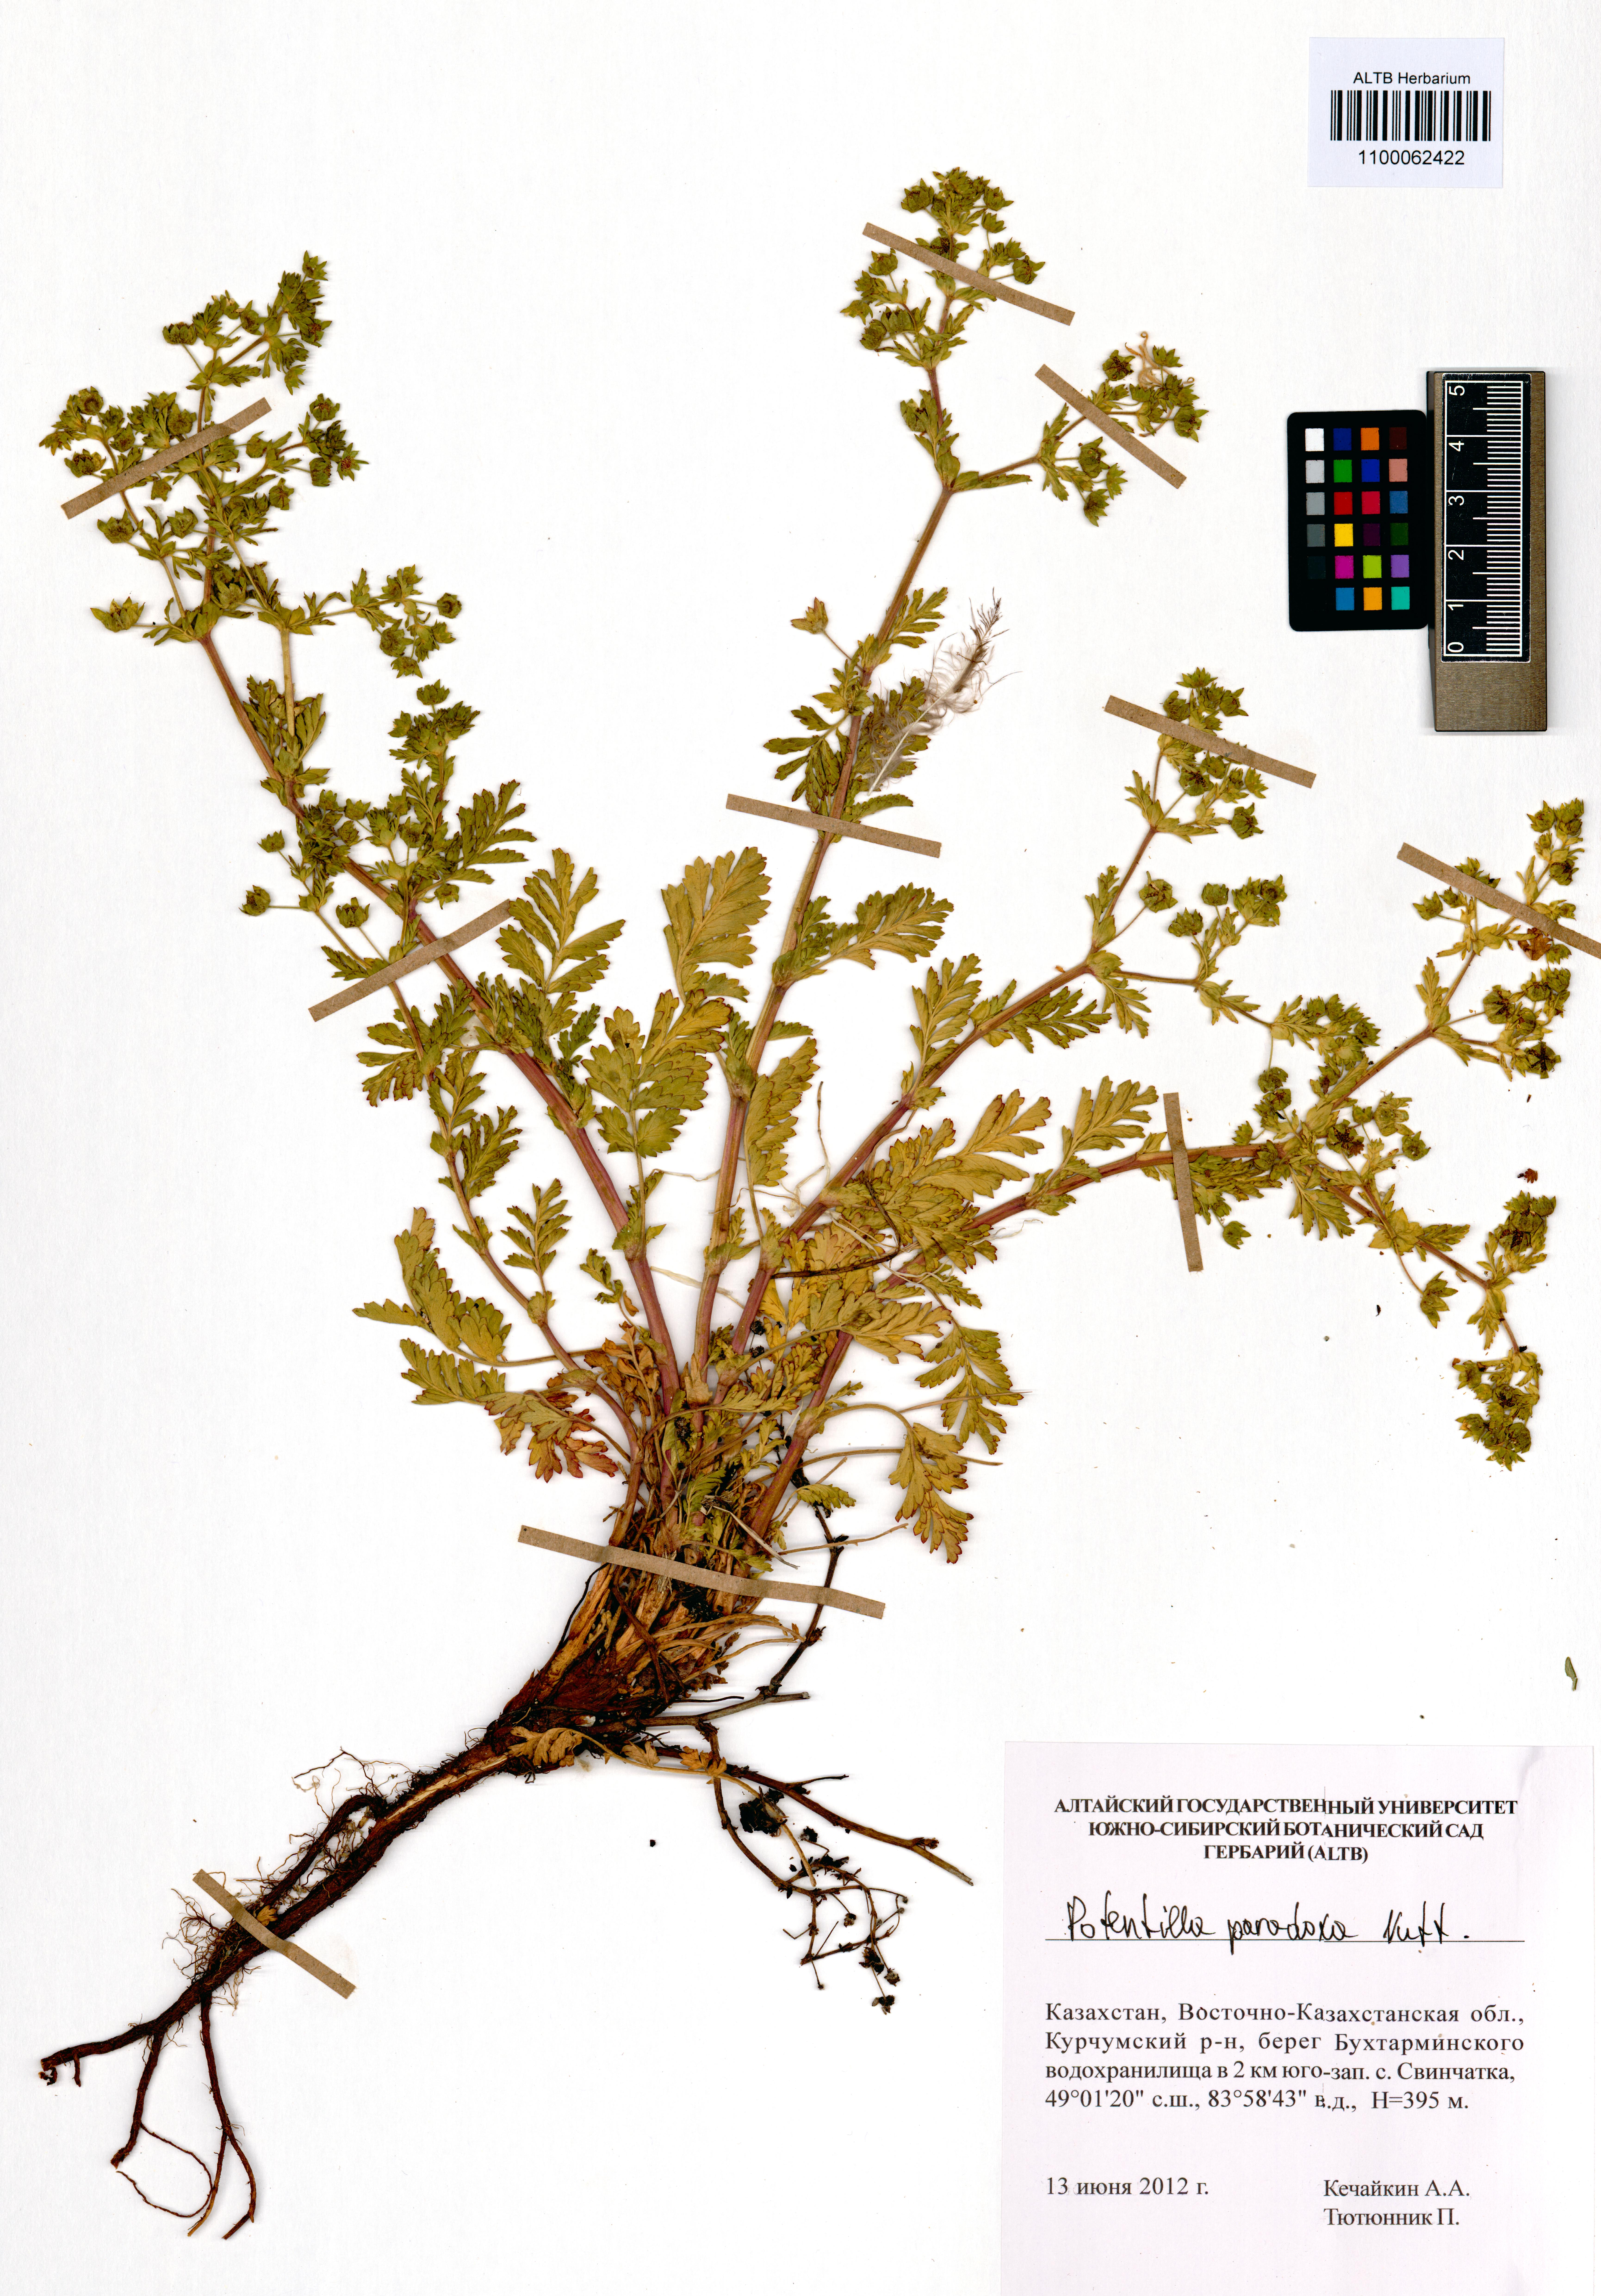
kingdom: Plantae
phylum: Tracheophyta
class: Magnoliopsida
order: Rosales
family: Rosaceae
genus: Potentilla
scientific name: Potentilla supina
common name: Prostrate cinquefoil
